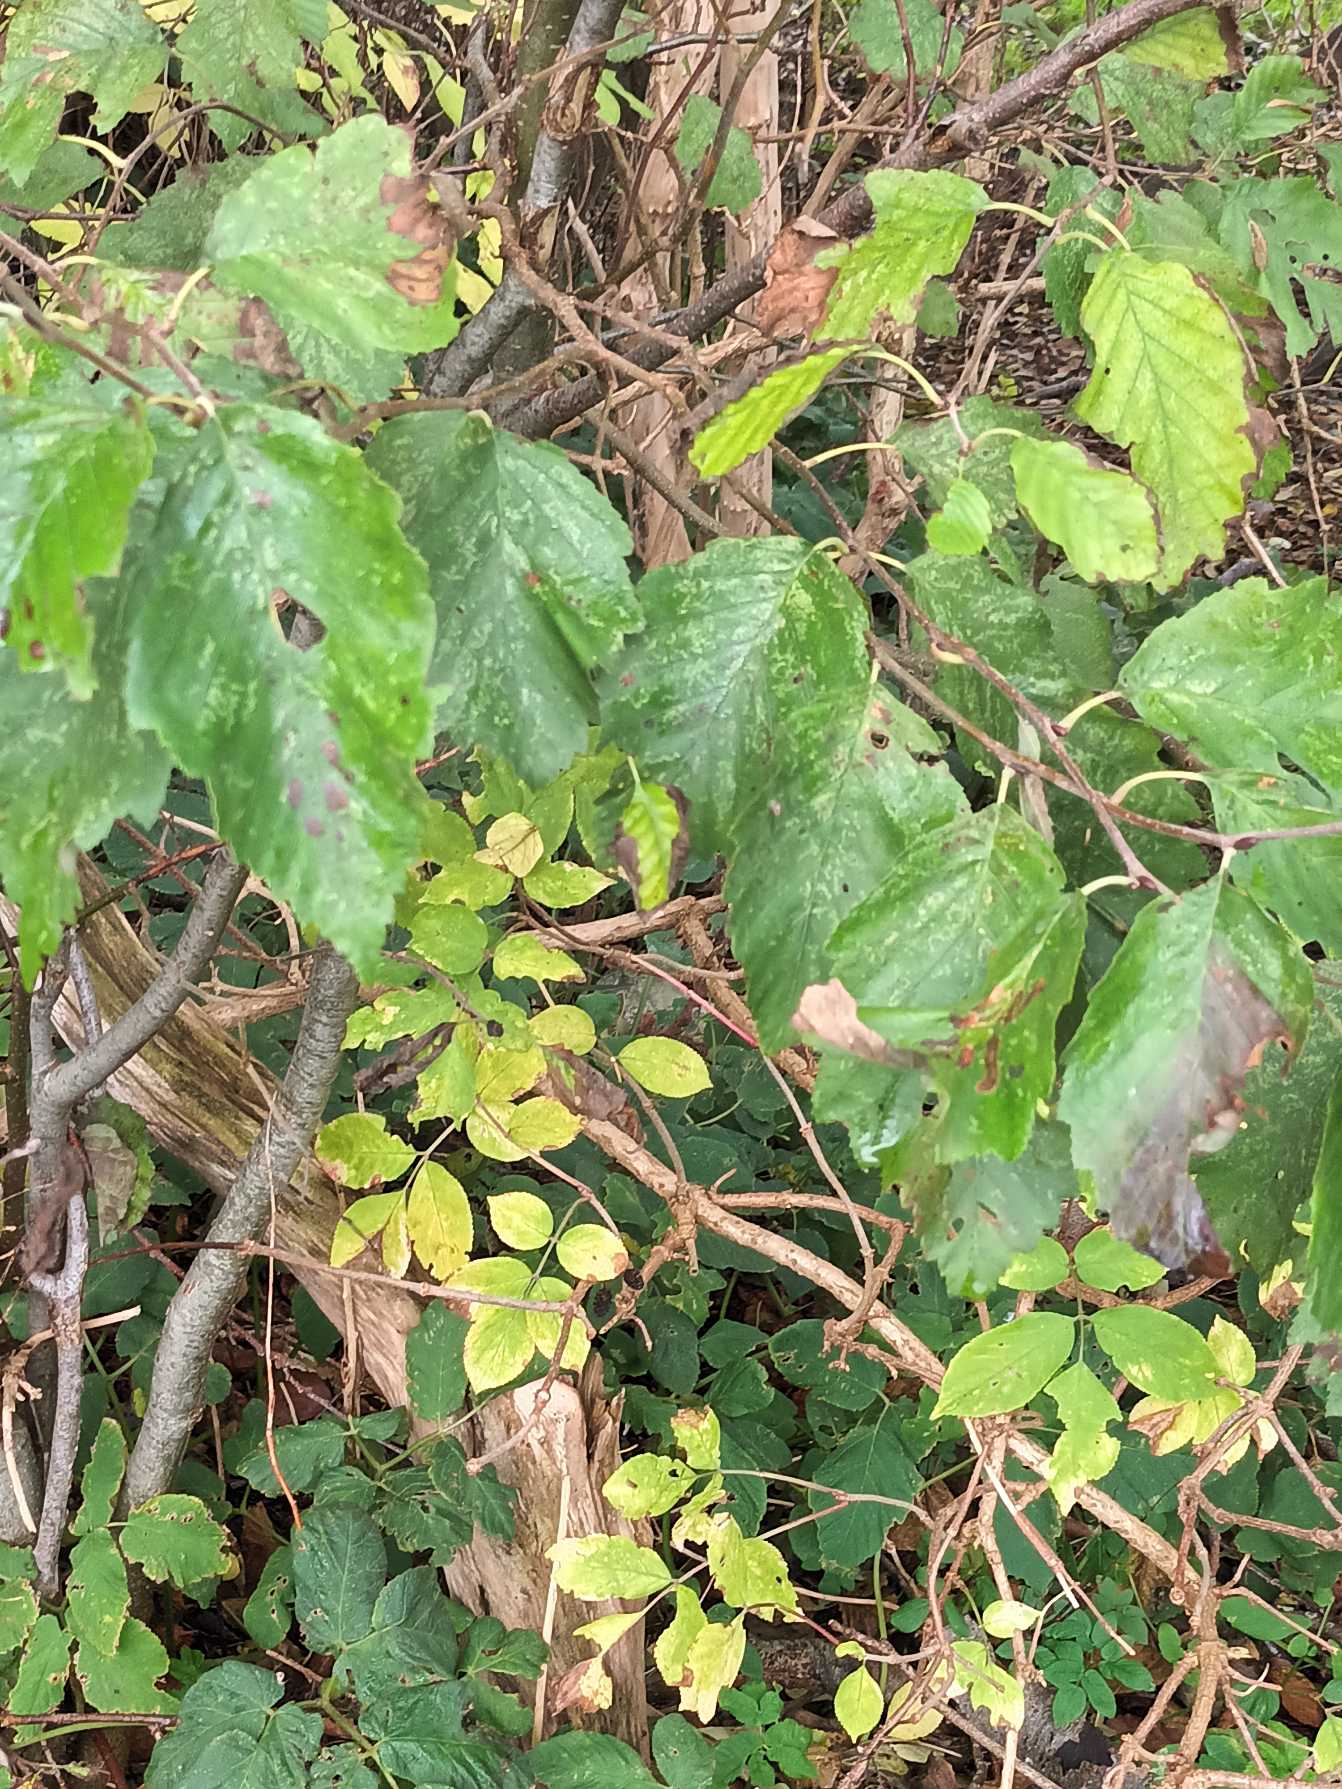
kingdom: Plantae
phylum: Tracheophyta
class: Magnoliopsida
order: Fagales
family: Betulaceae
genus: Alnus
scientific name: Alnus incana
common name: Grå-el/hvid-el
